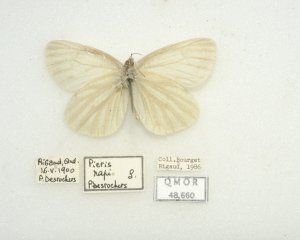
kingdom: Animalia
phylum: Arthropoda
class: Insecta
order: Lepidoptera
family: Pieridae
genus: Pieris
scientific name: Pieris oleracea
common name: Mustard White
